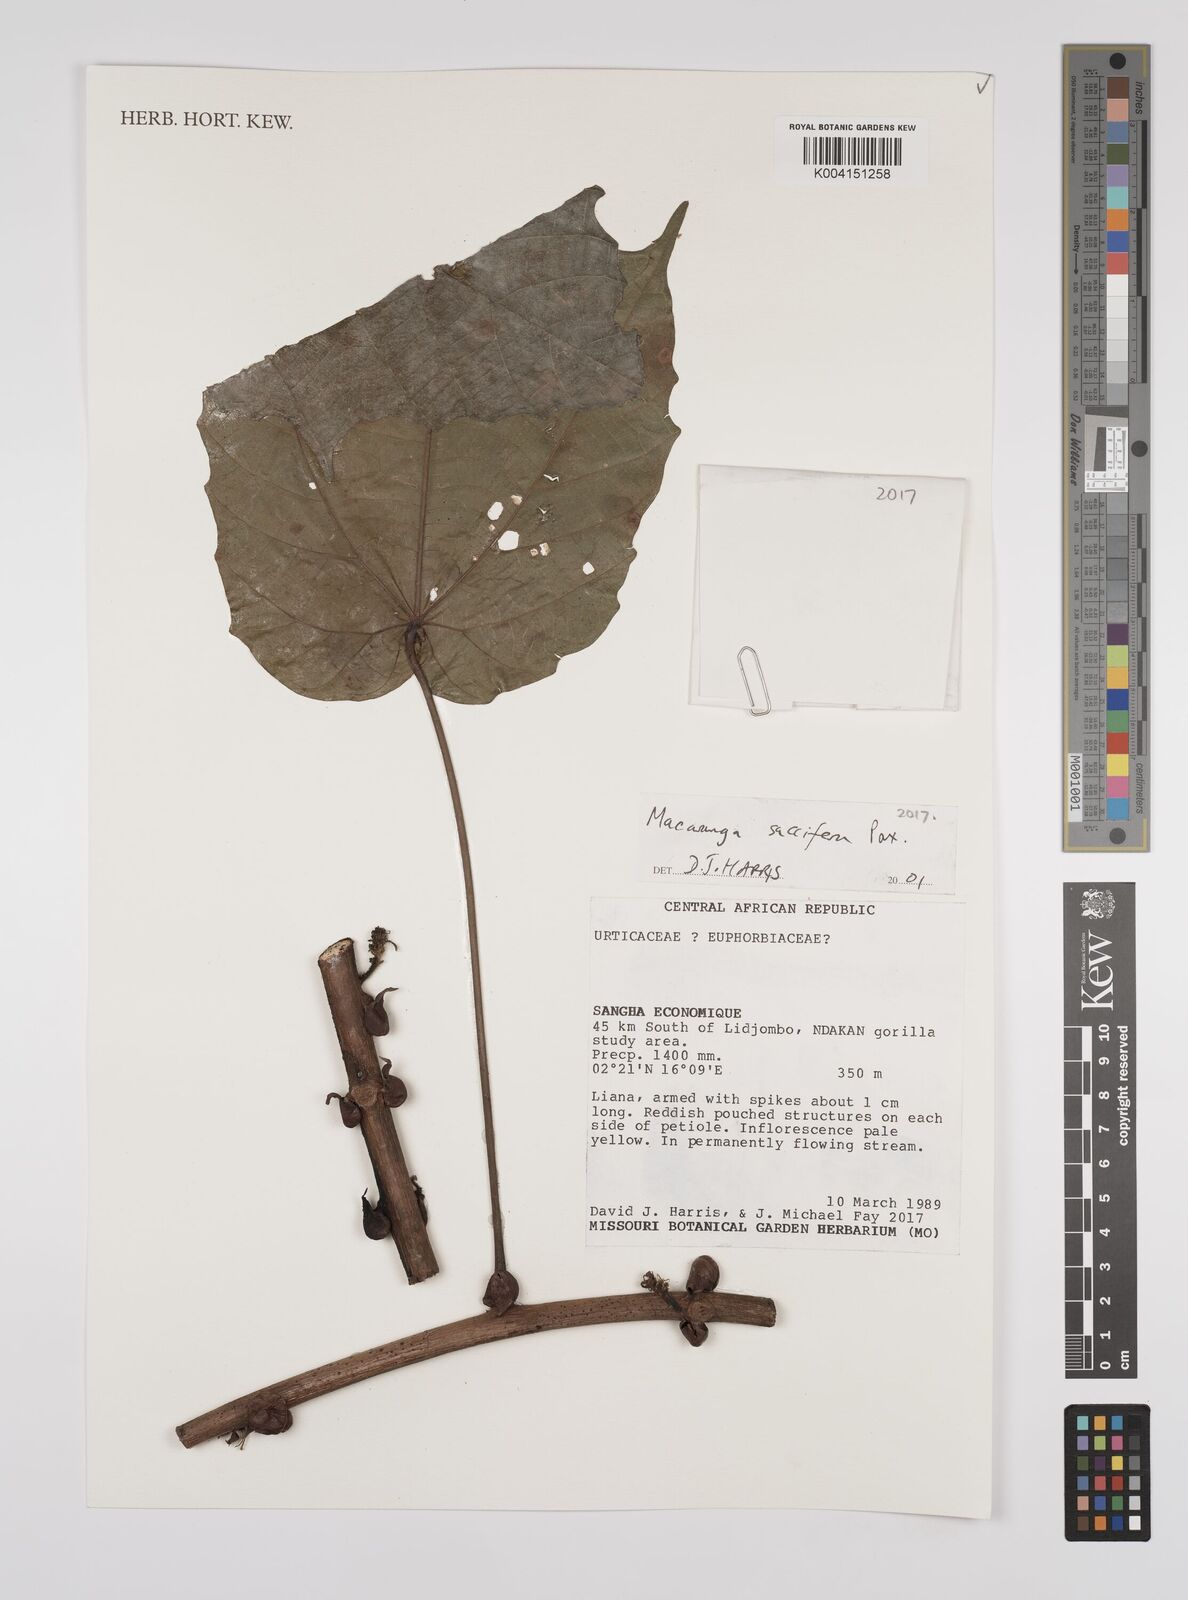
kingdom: Plantae
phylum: Tracheophyta
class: Magnoliopsida
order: Malpighiales
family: Euphorbiaceae
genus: Macaranga
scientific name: Macaranga saccifera
